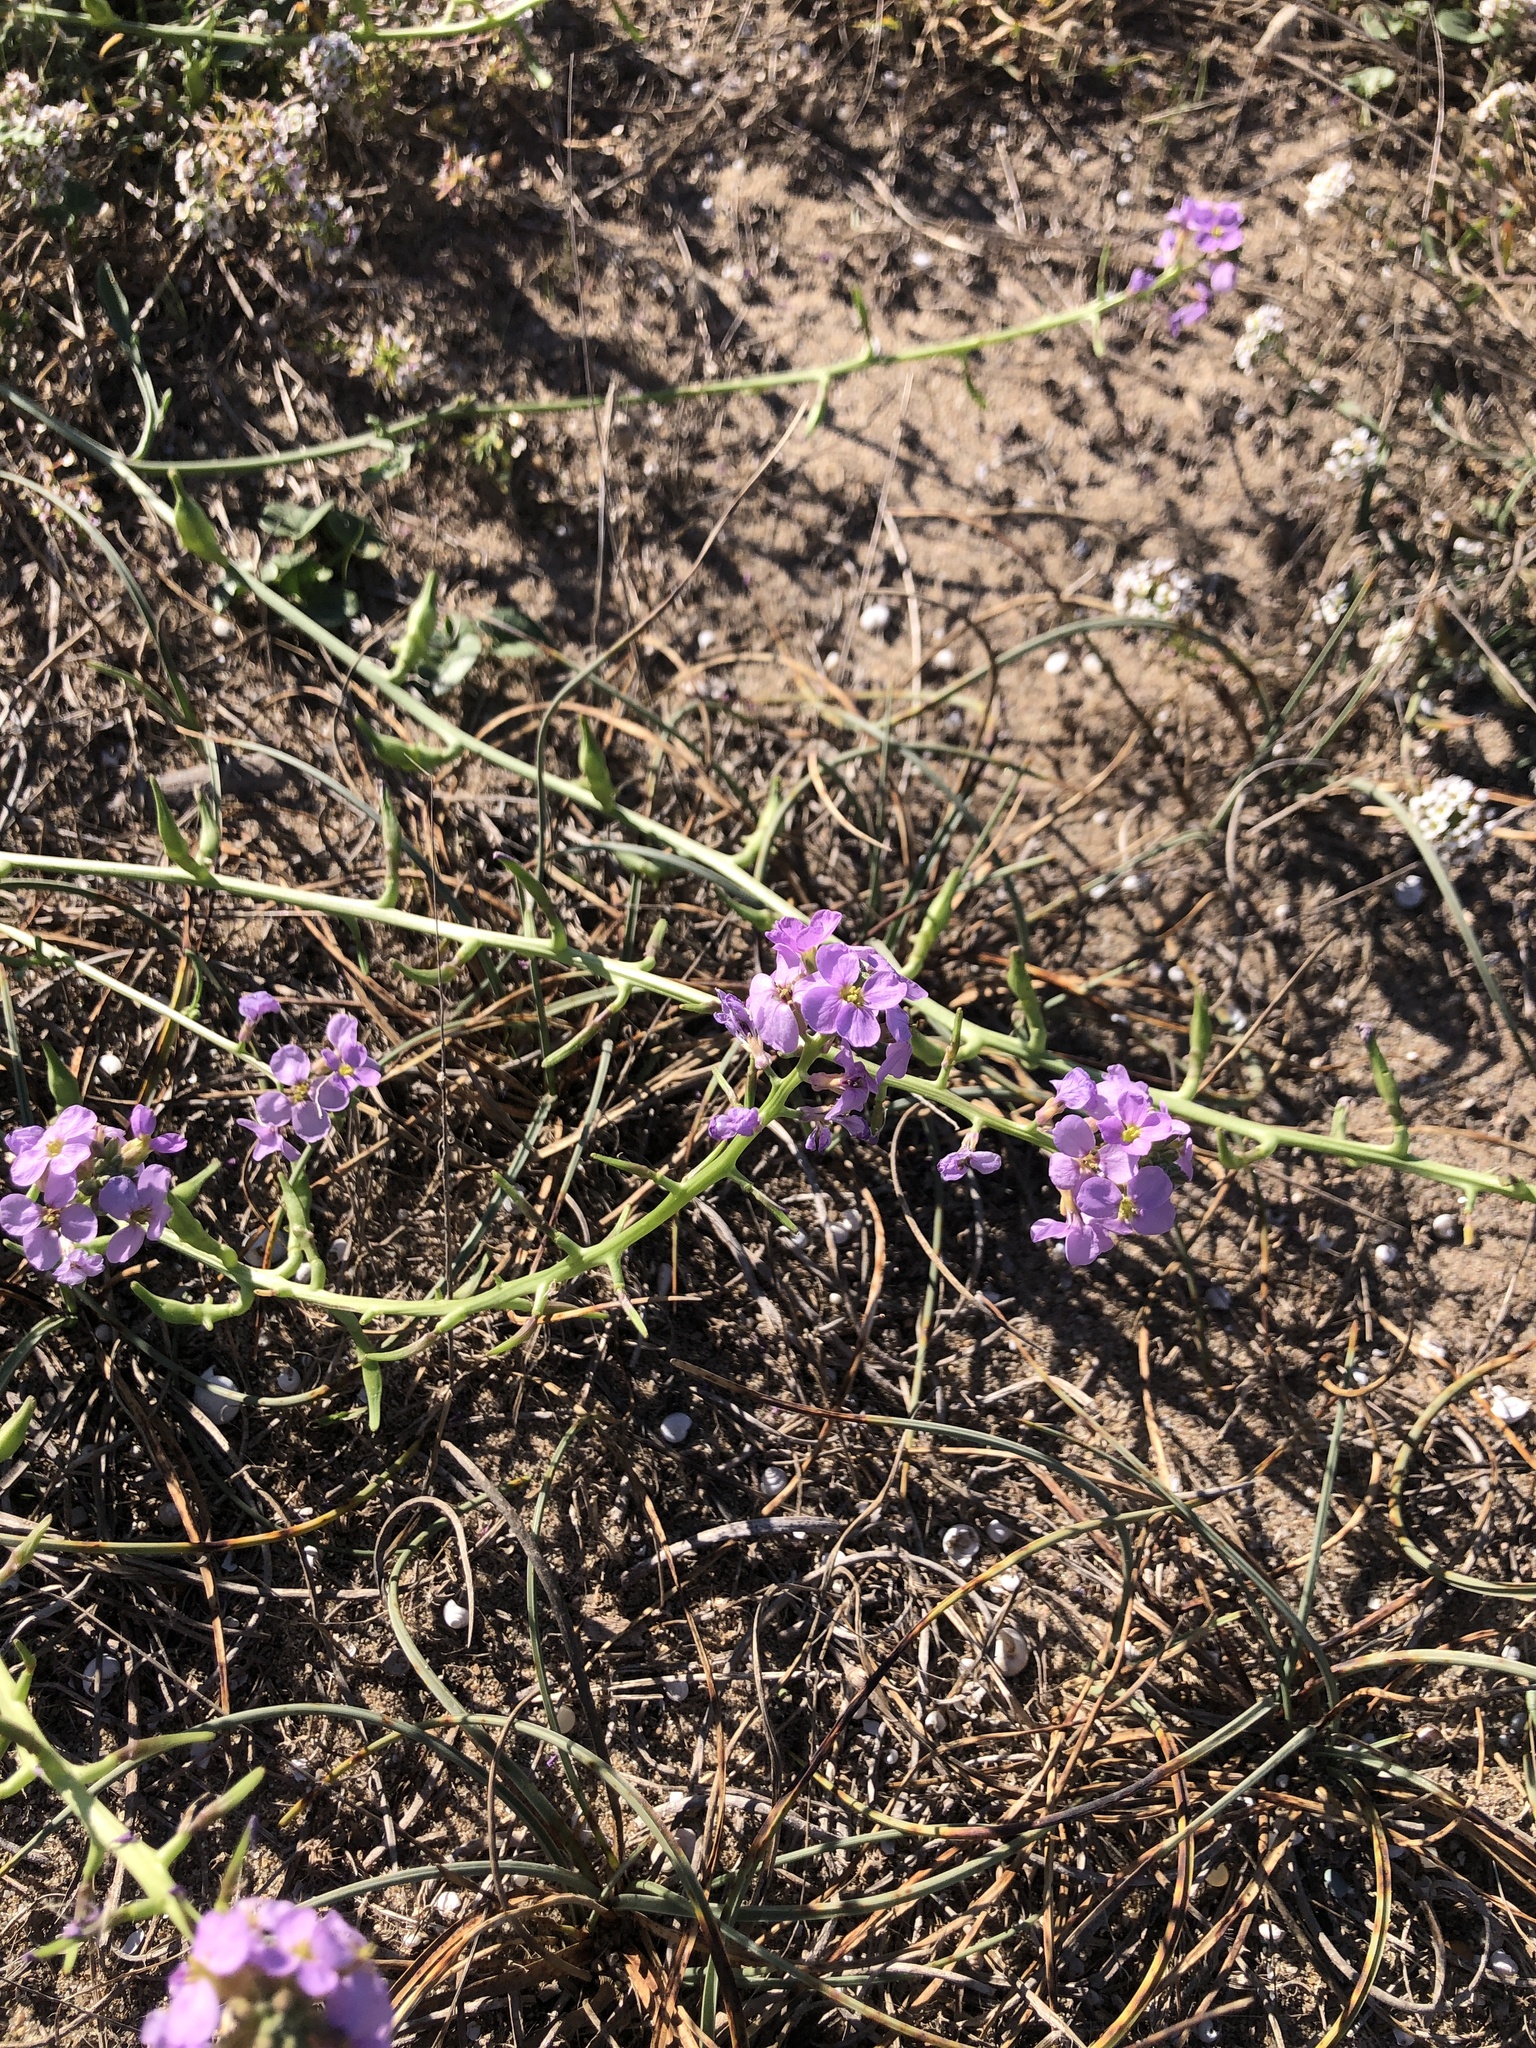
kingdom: Plantae
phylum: Tracheophyta
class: Magnoliopsida
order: Brassicales
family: Brassicaceae
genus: Cakile
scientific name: Cakile maritima
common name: Sea rocket
